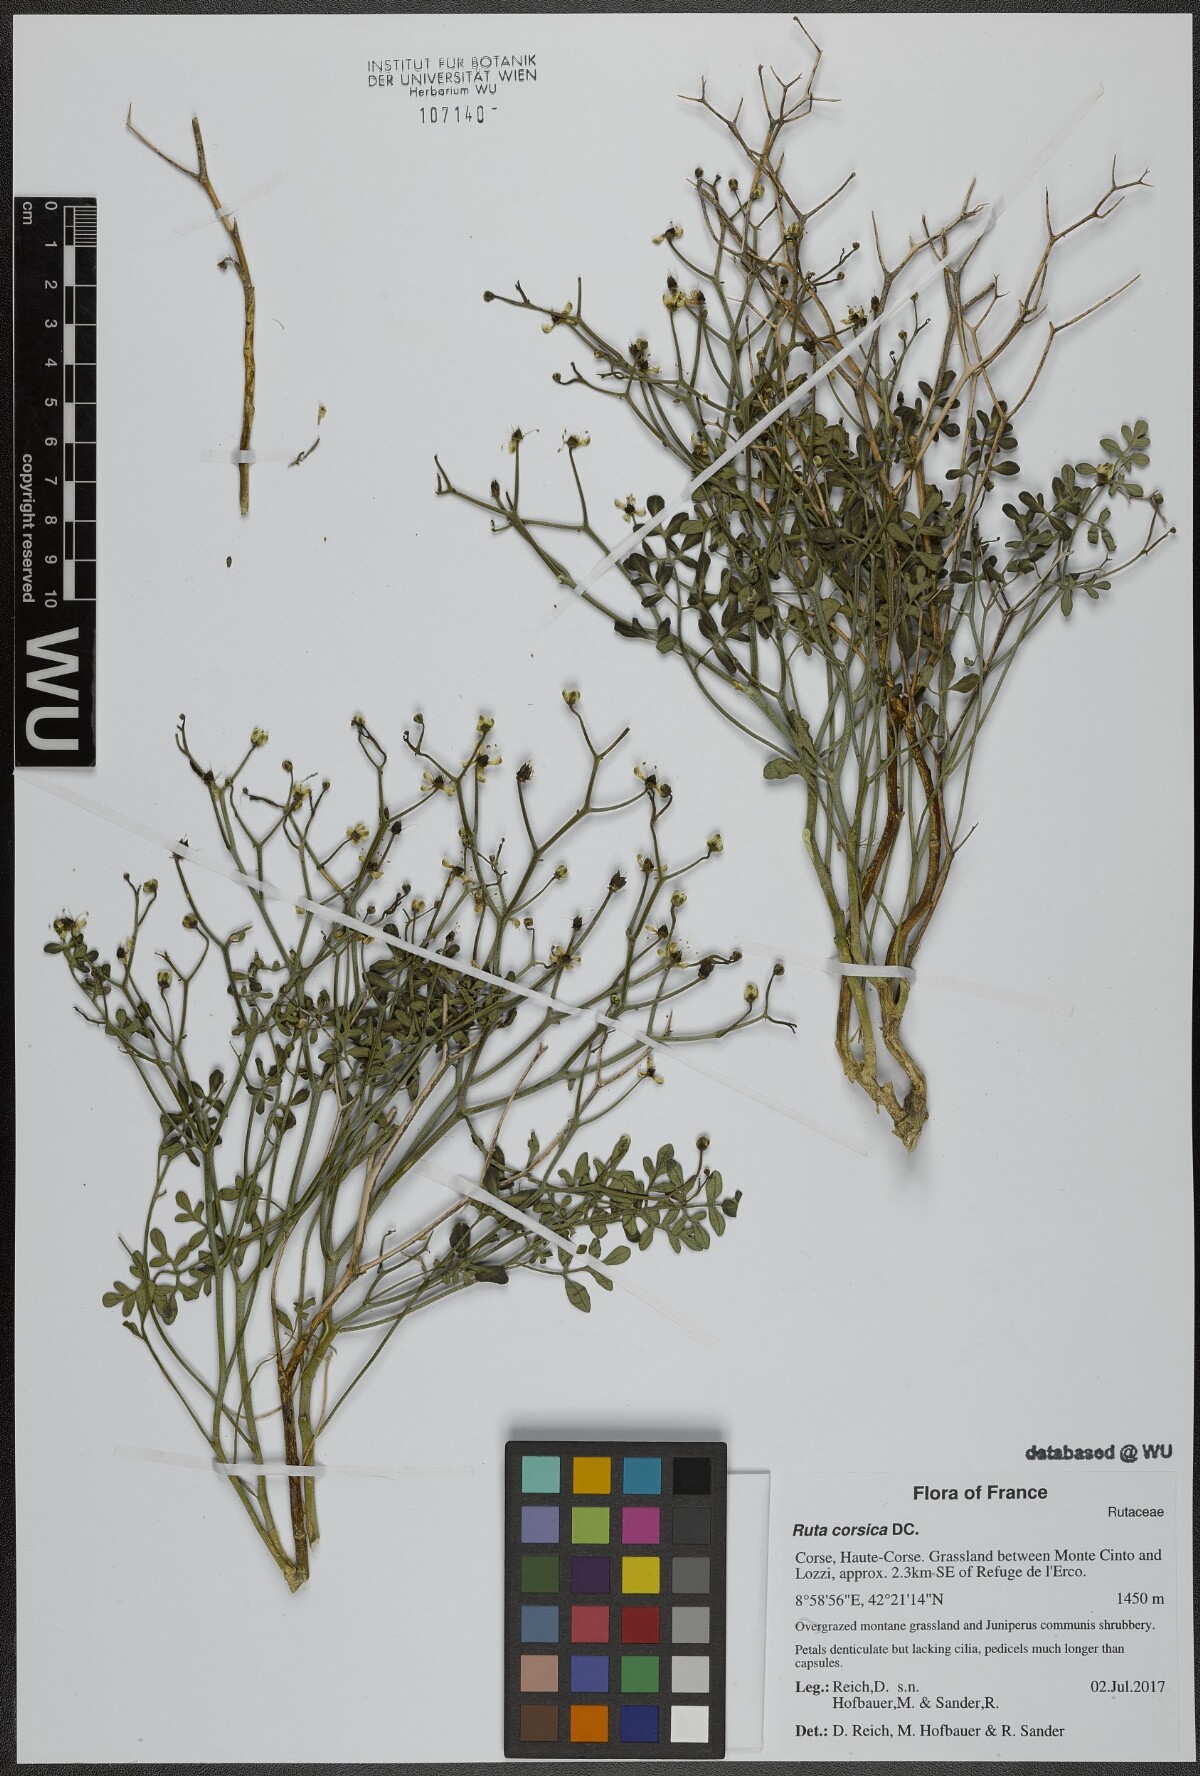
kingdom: Plantae
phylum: Tracheophyta
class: Magnoliopsida
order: Sapindales
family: Rutaceae
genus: Ruta
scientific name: Ruta corsica
